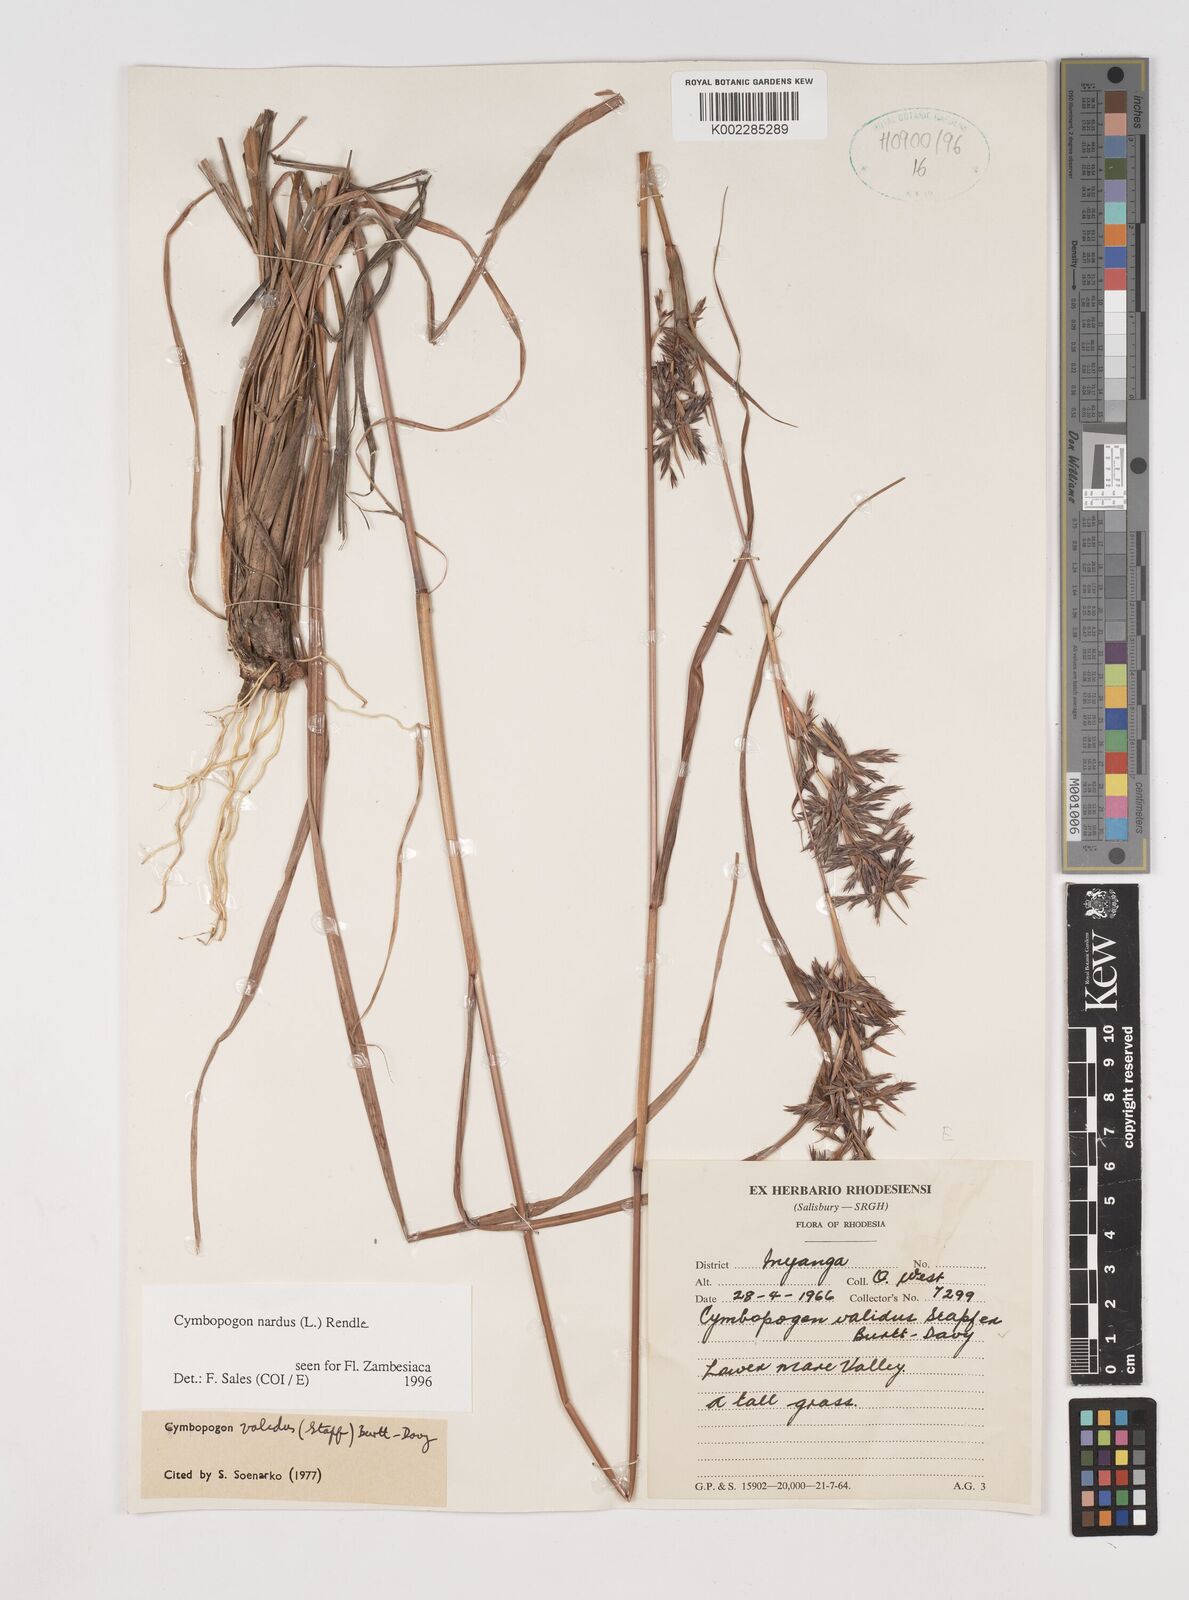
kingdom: Plantae
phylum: Tracheophyta
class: Liliopsida
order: Poales
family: Poaceae
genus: Cymbopogon
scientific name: Cymbopogon nardus
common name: Giant turpentine grass
